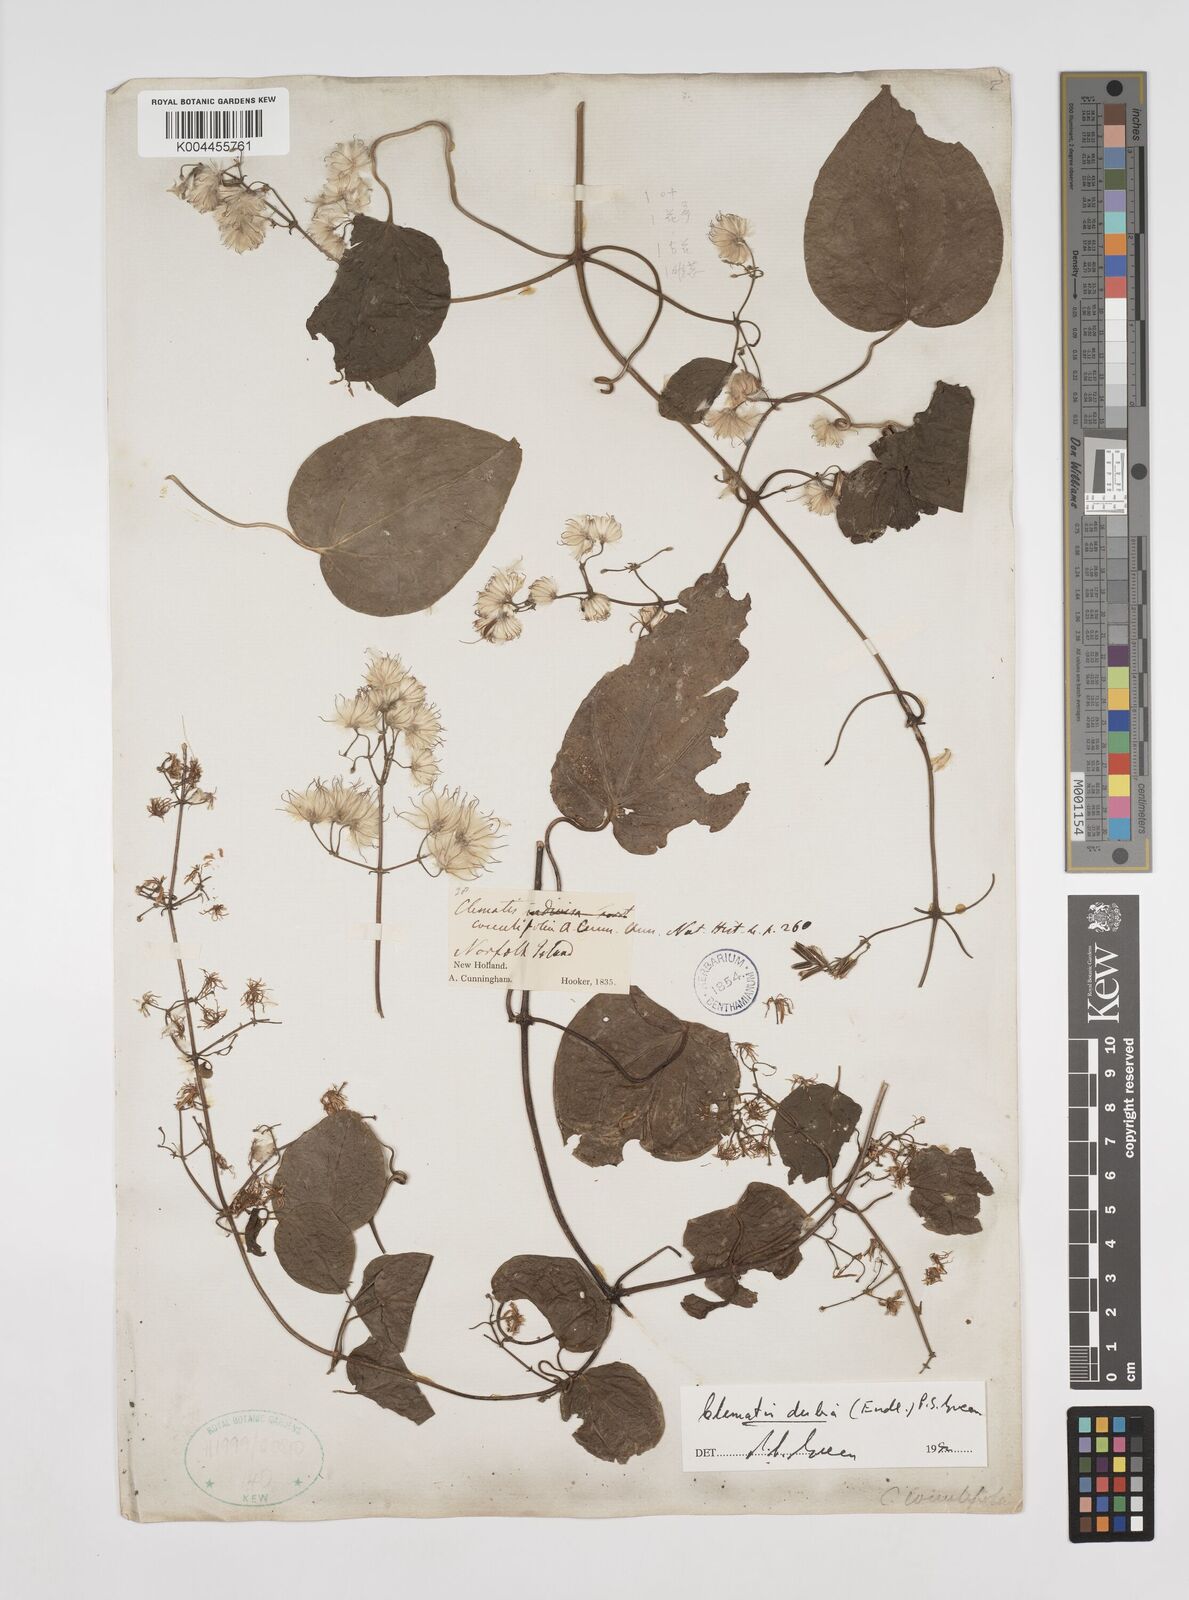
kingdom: Plantae
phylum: Tracheophyta
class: Magnoliopsida
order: Ranunculales
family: Ranunculaceae
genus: Clematis
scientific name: Clematis dubia
